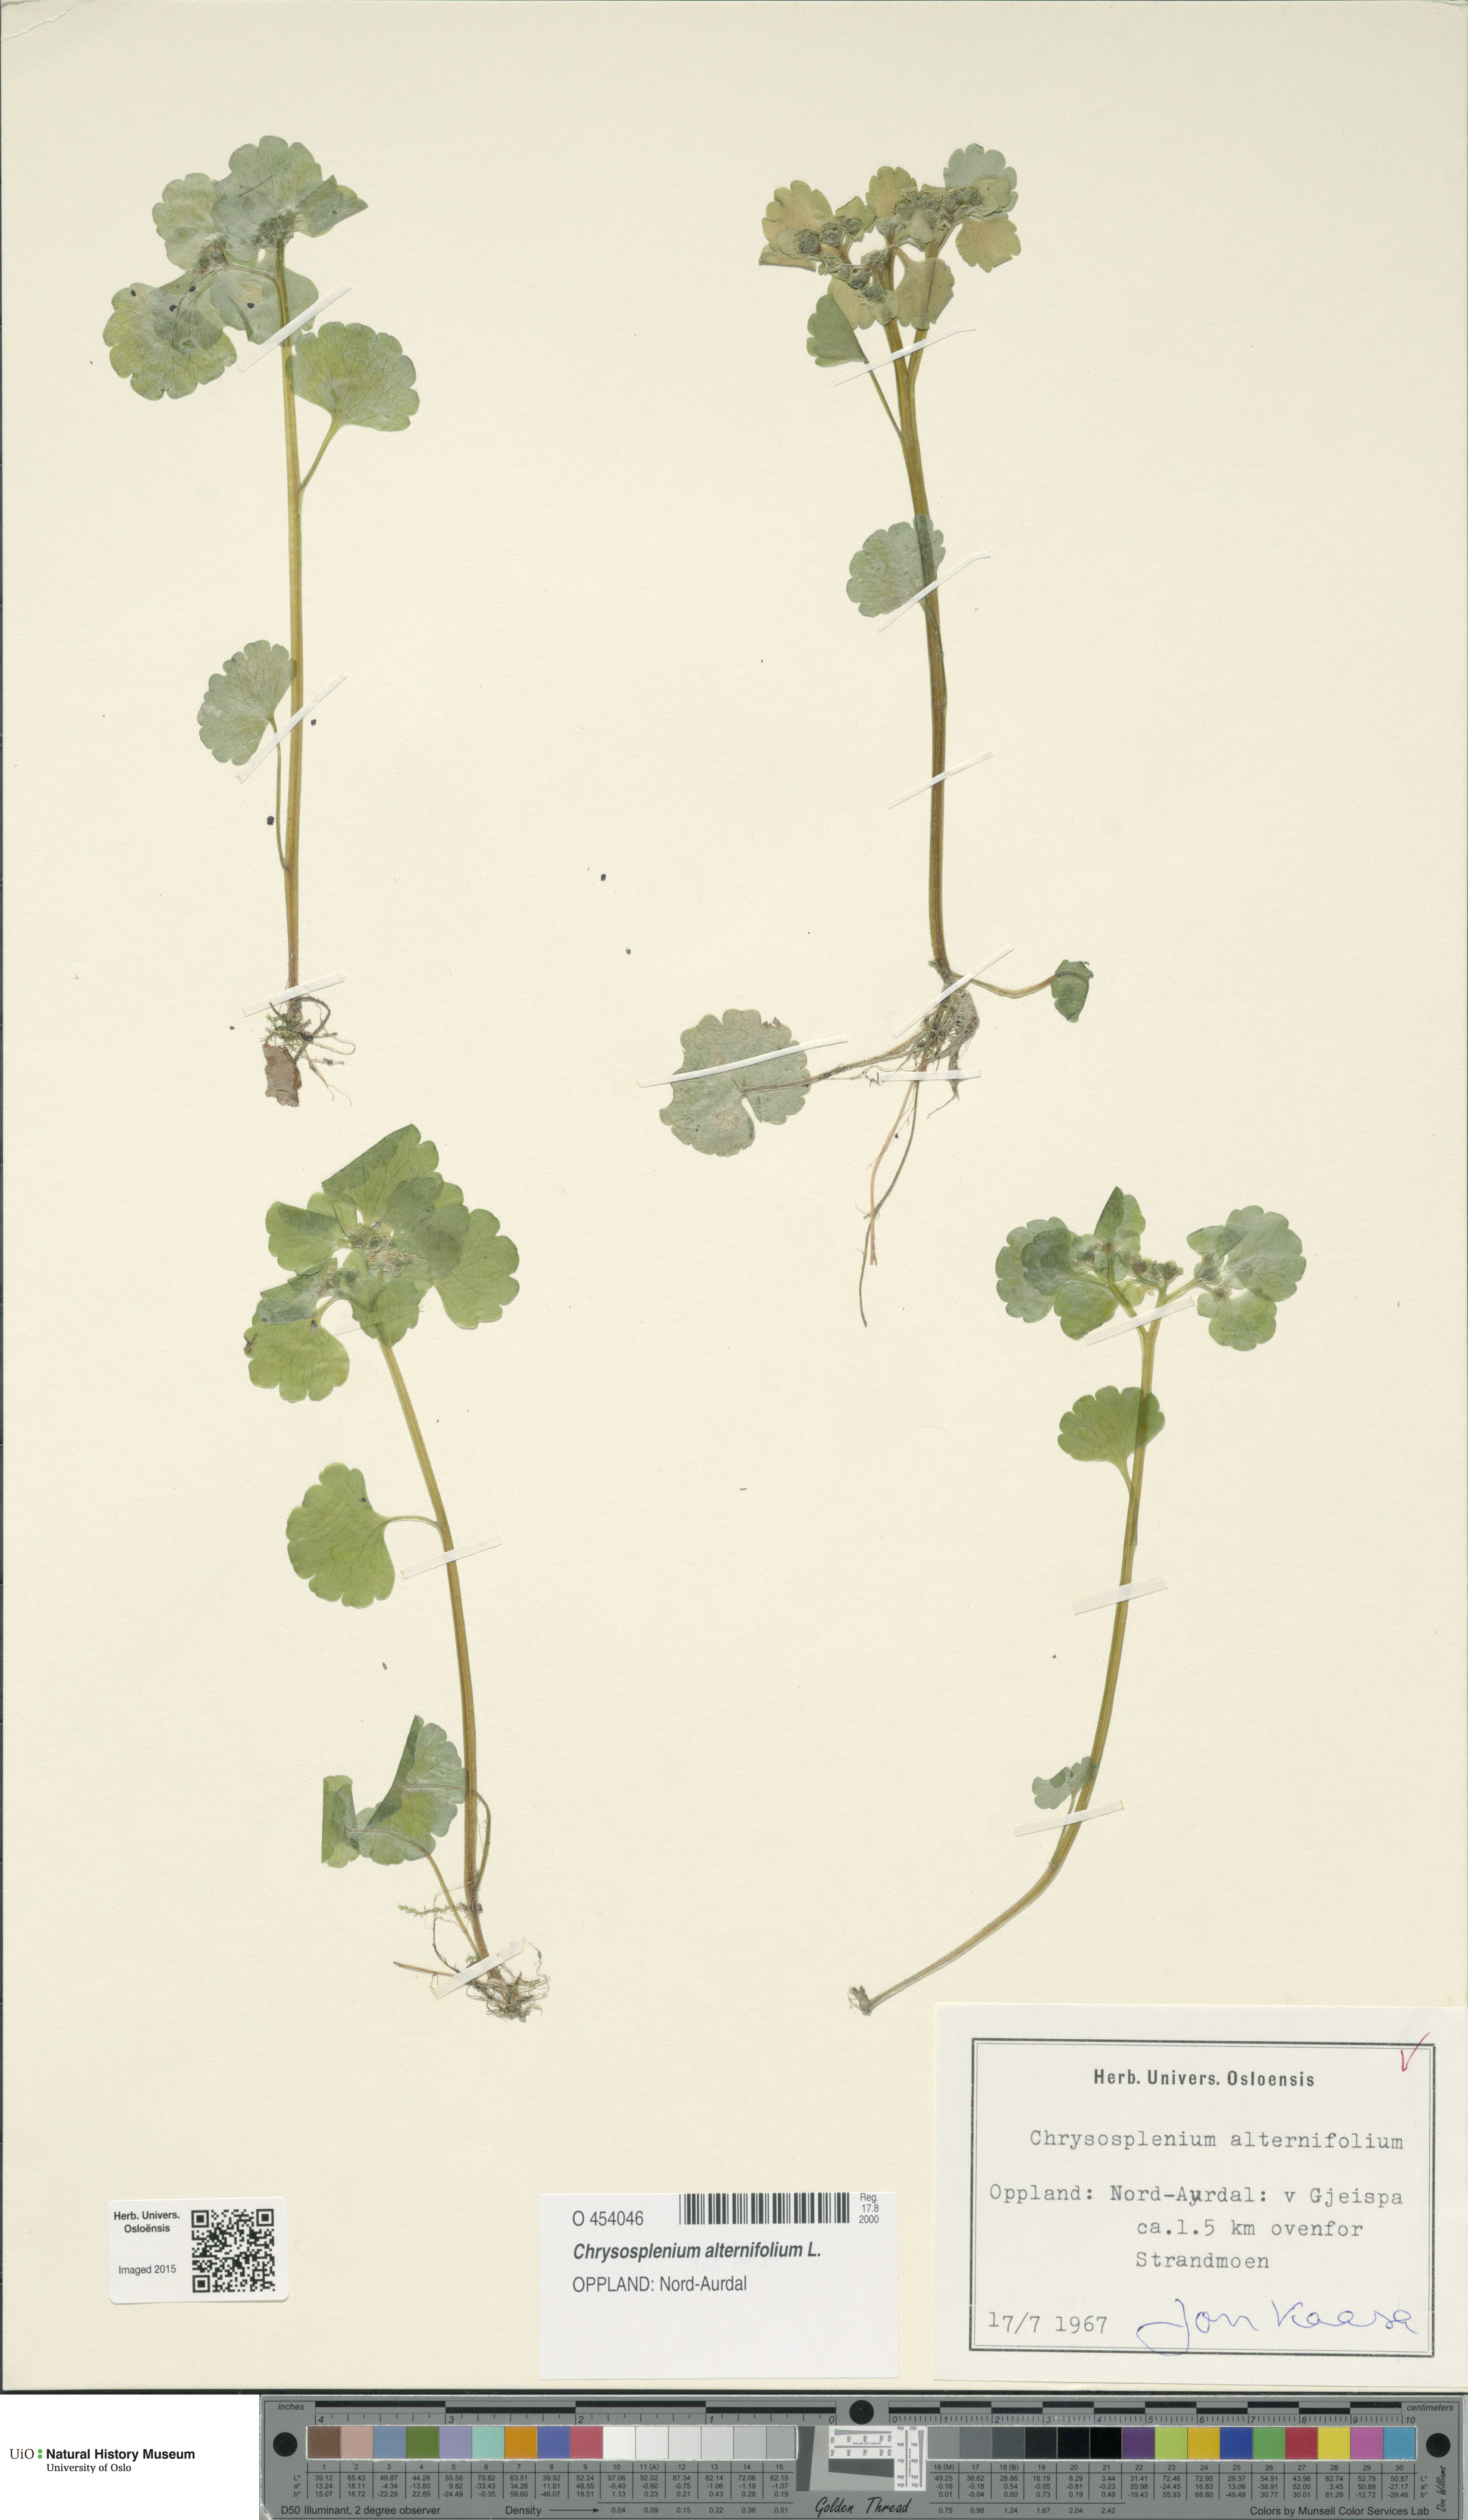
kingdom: Plantae
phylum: Tracheophyta
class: Magnoliopsida
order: Saxifragales
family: Saxifragaceae
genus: Chrysosplenium
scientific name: Chrysosplenium alternifolium
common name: Alternate-leaved golden-saxifrage
